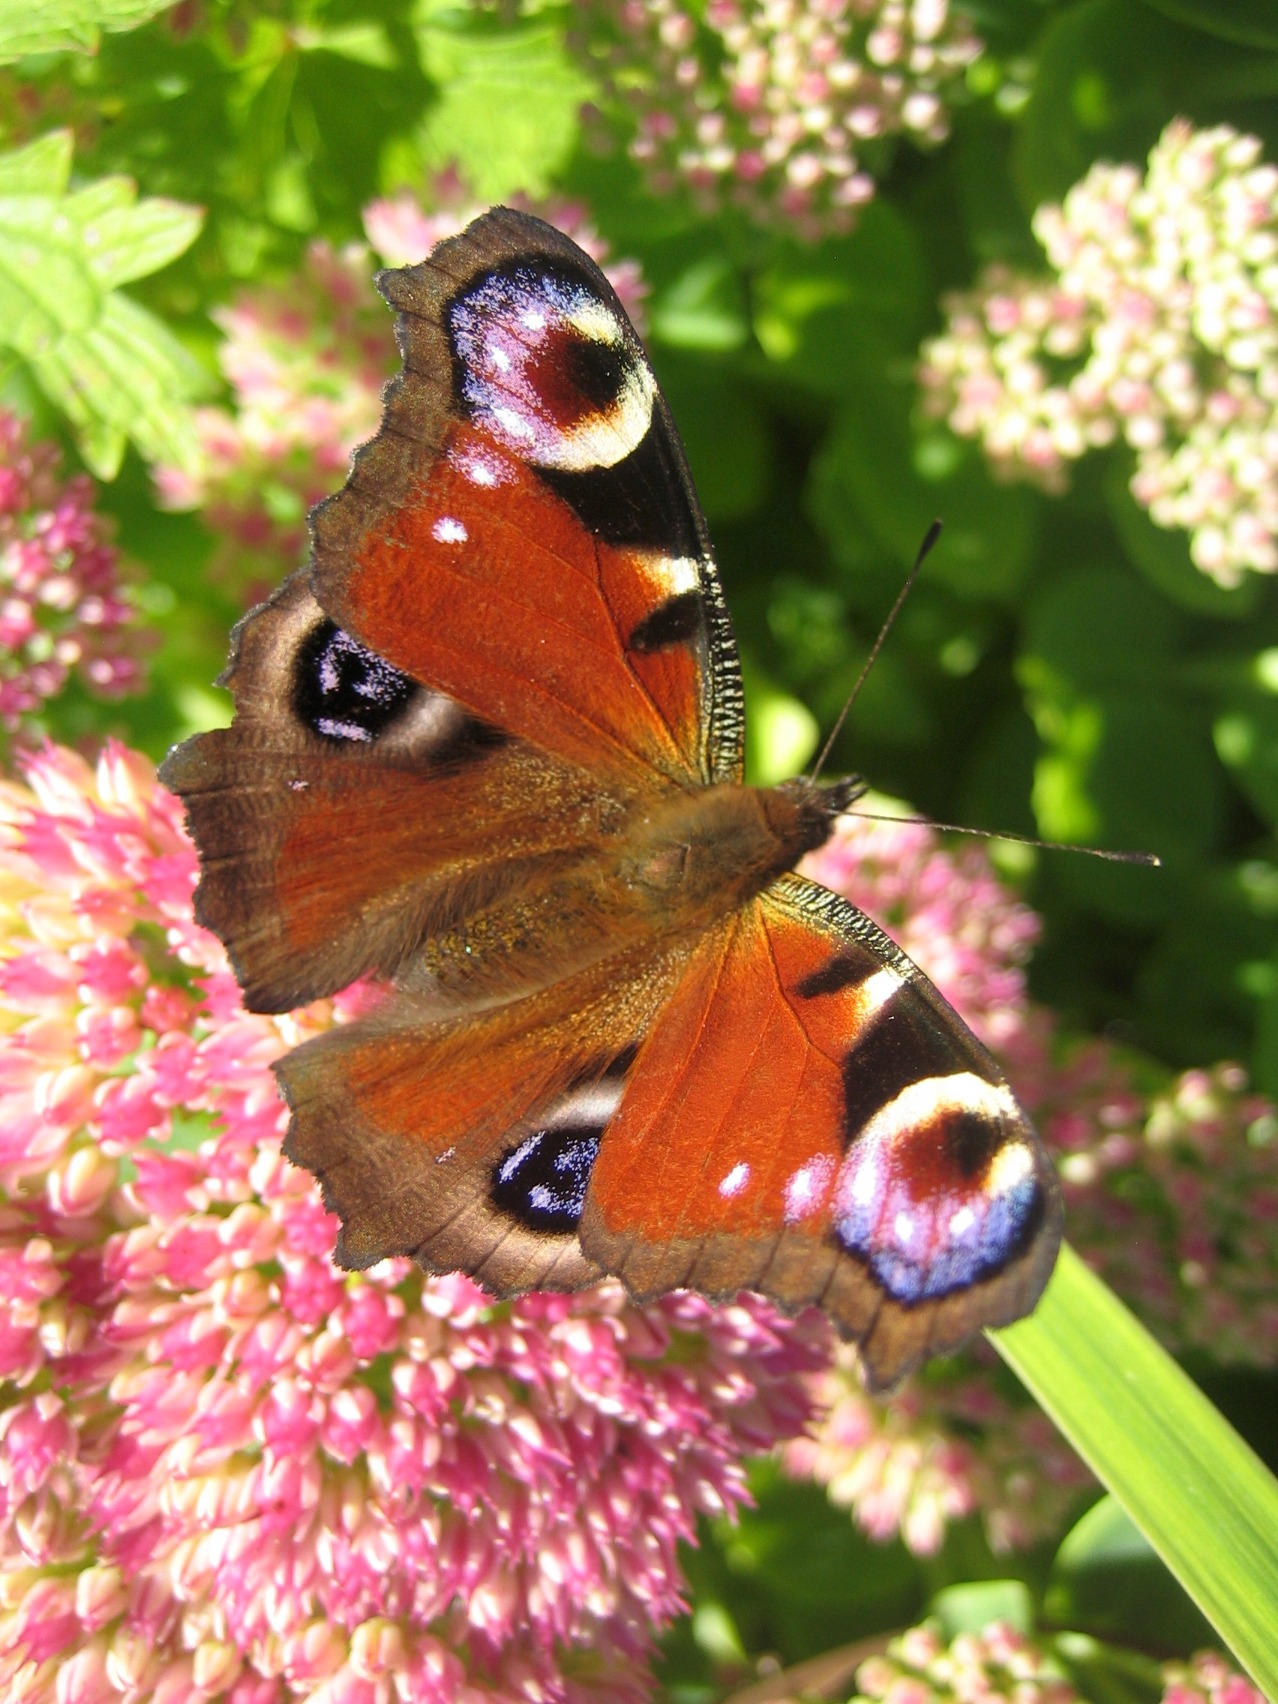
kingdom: Animalia
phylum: Arthropoda
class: Insecta
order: Lepidoptera
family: Nymphalidae
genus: Aglais
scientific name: Aglais io
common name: Dagpåfugleøje
